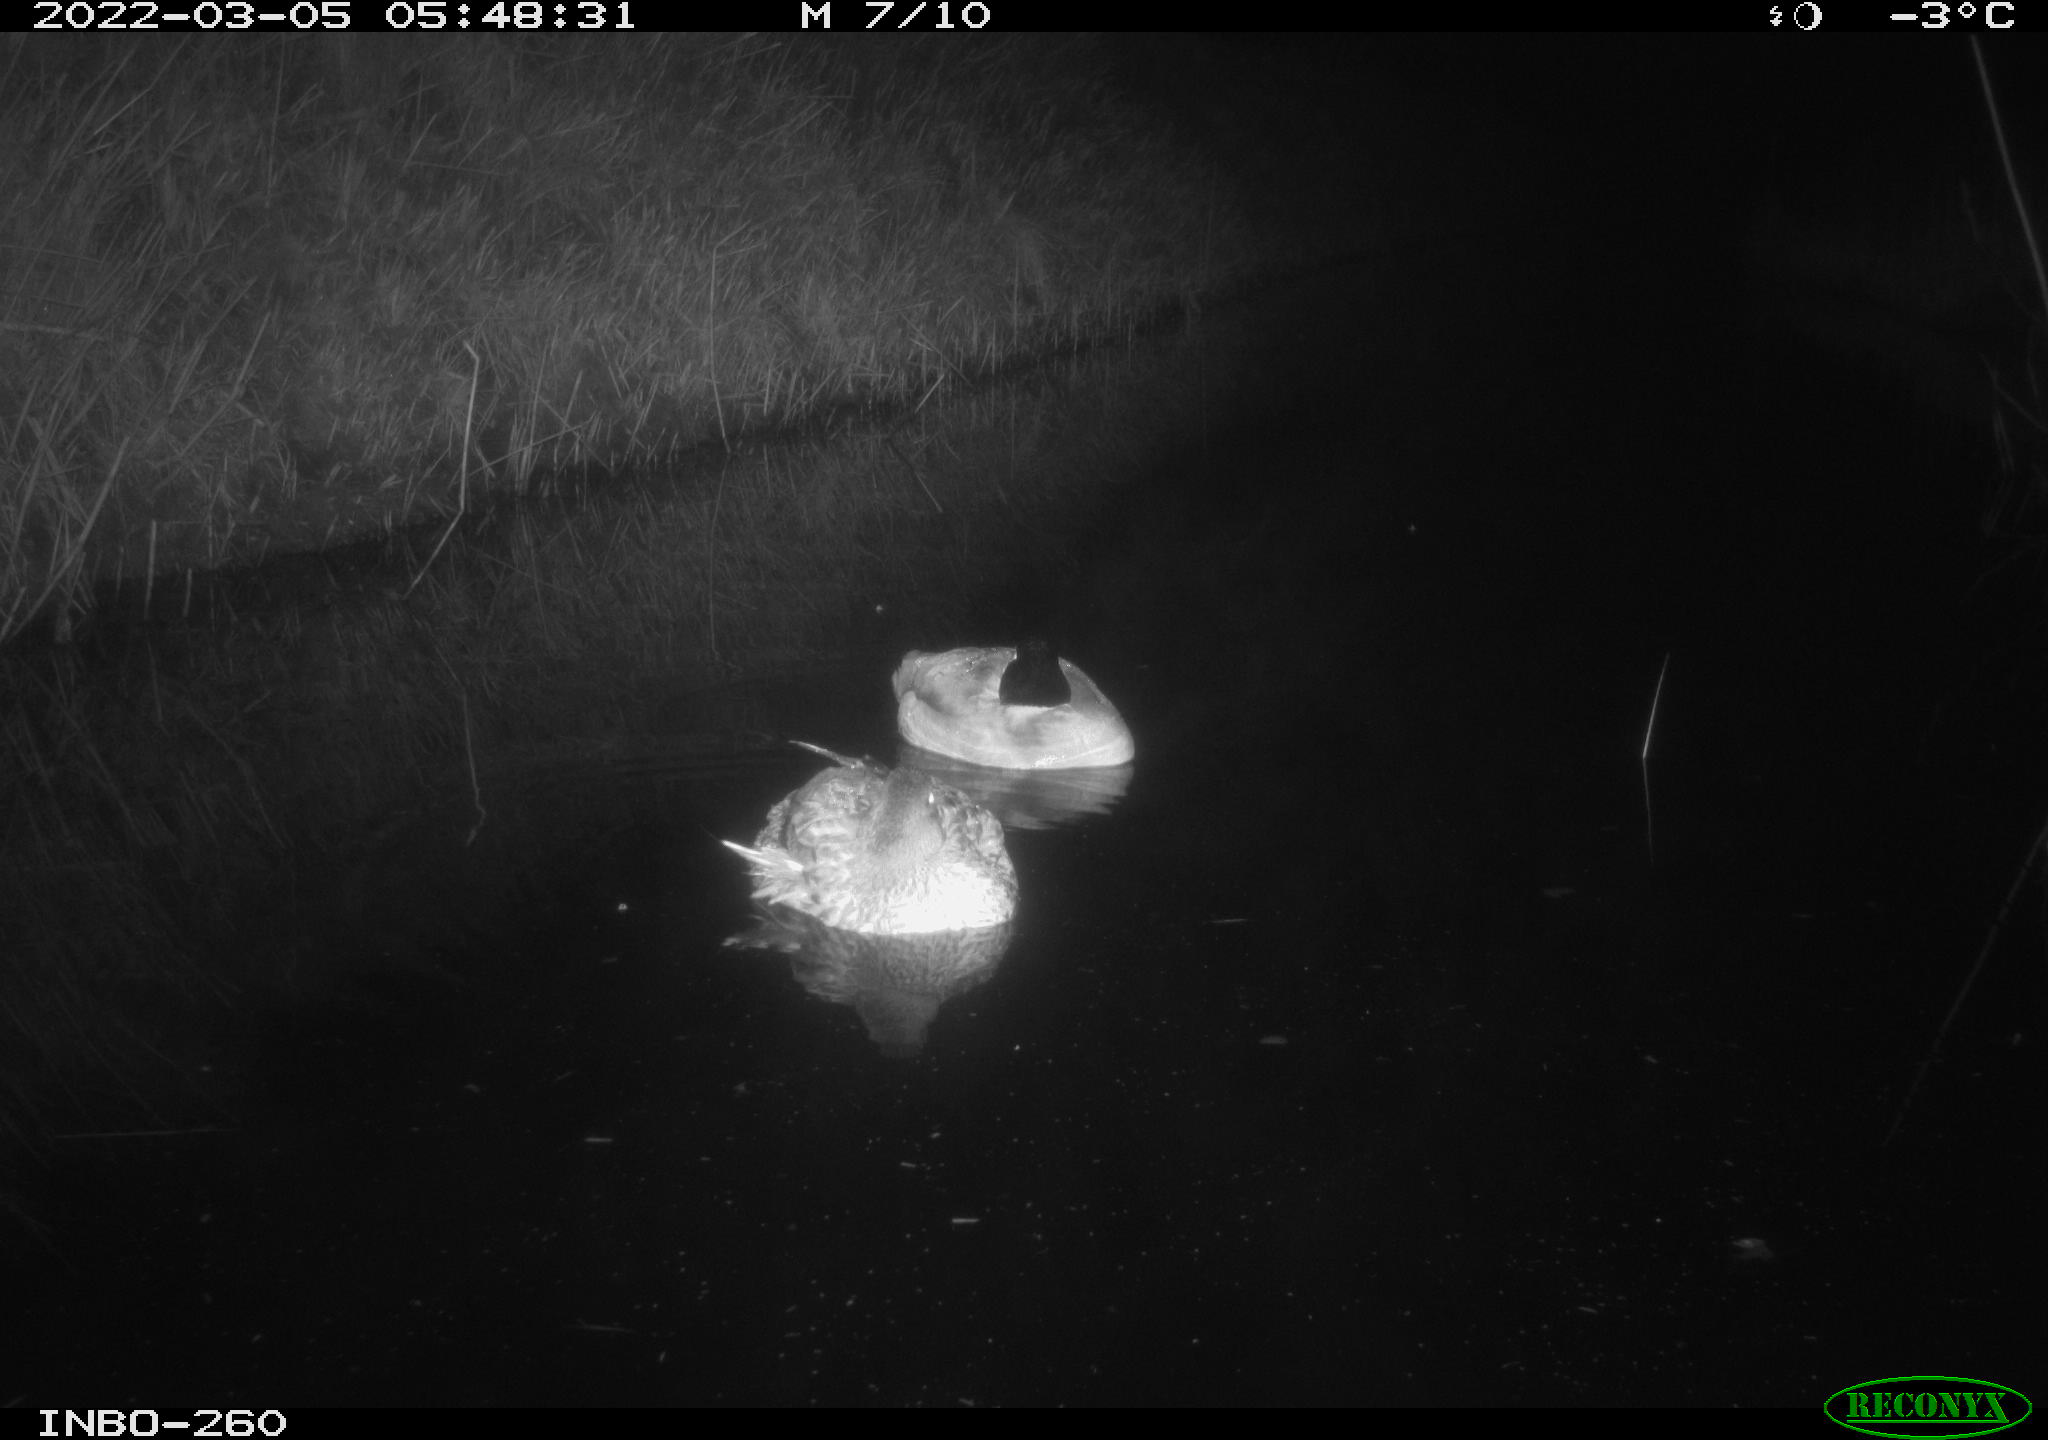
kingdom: Animalia
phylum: Chordata
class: Aves
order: Anseriformes
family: Anatidae
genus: Anas
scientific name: Anas platyrhynchos
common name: Mallard
